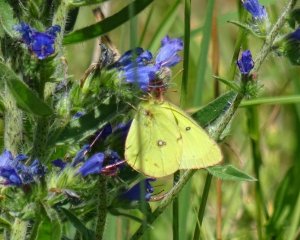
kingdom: Animalia
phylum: Arthropoda
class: Insecta
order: Lepidoptera
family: Pieridae
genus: Colias
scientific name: Colias philodice
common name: Clouded Sulphur
